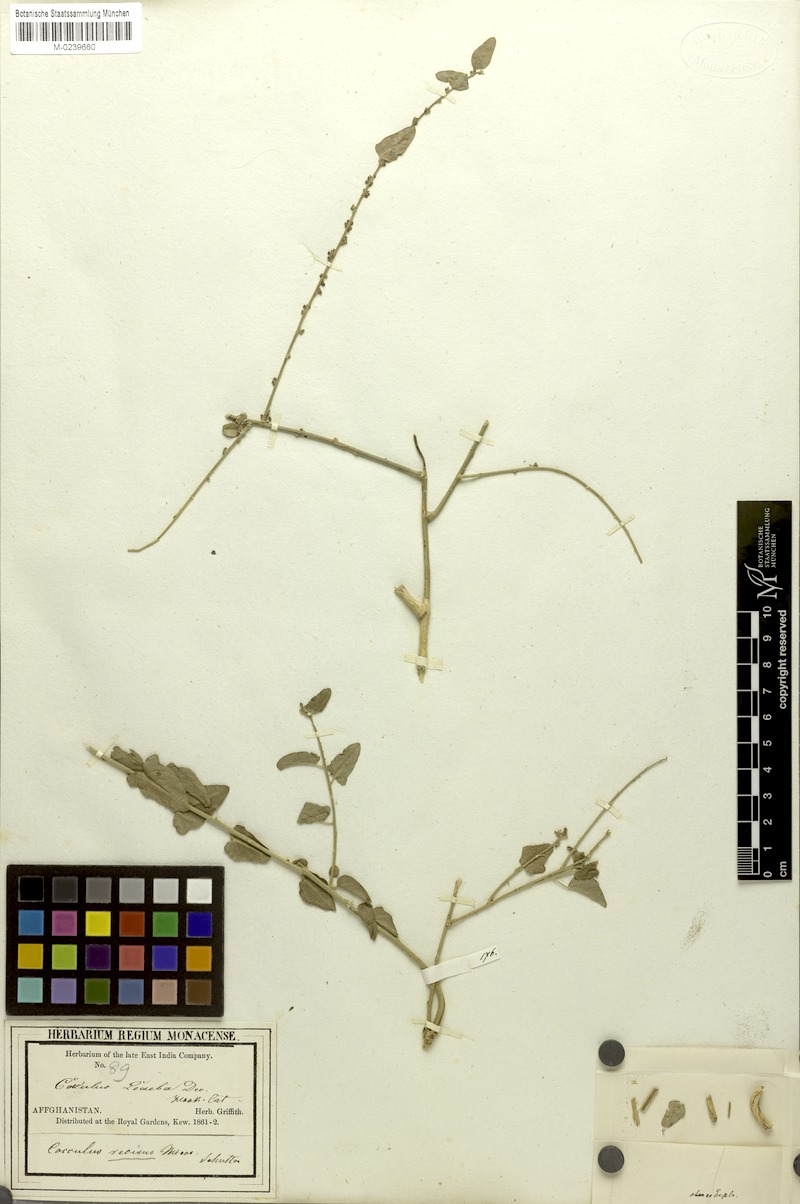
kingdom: Plantae
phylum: Tracheophyta
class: Magnoliopsida
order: Ranunculales
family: Menispermaceae
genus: Cocculus
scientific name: Cocculus pendulus
